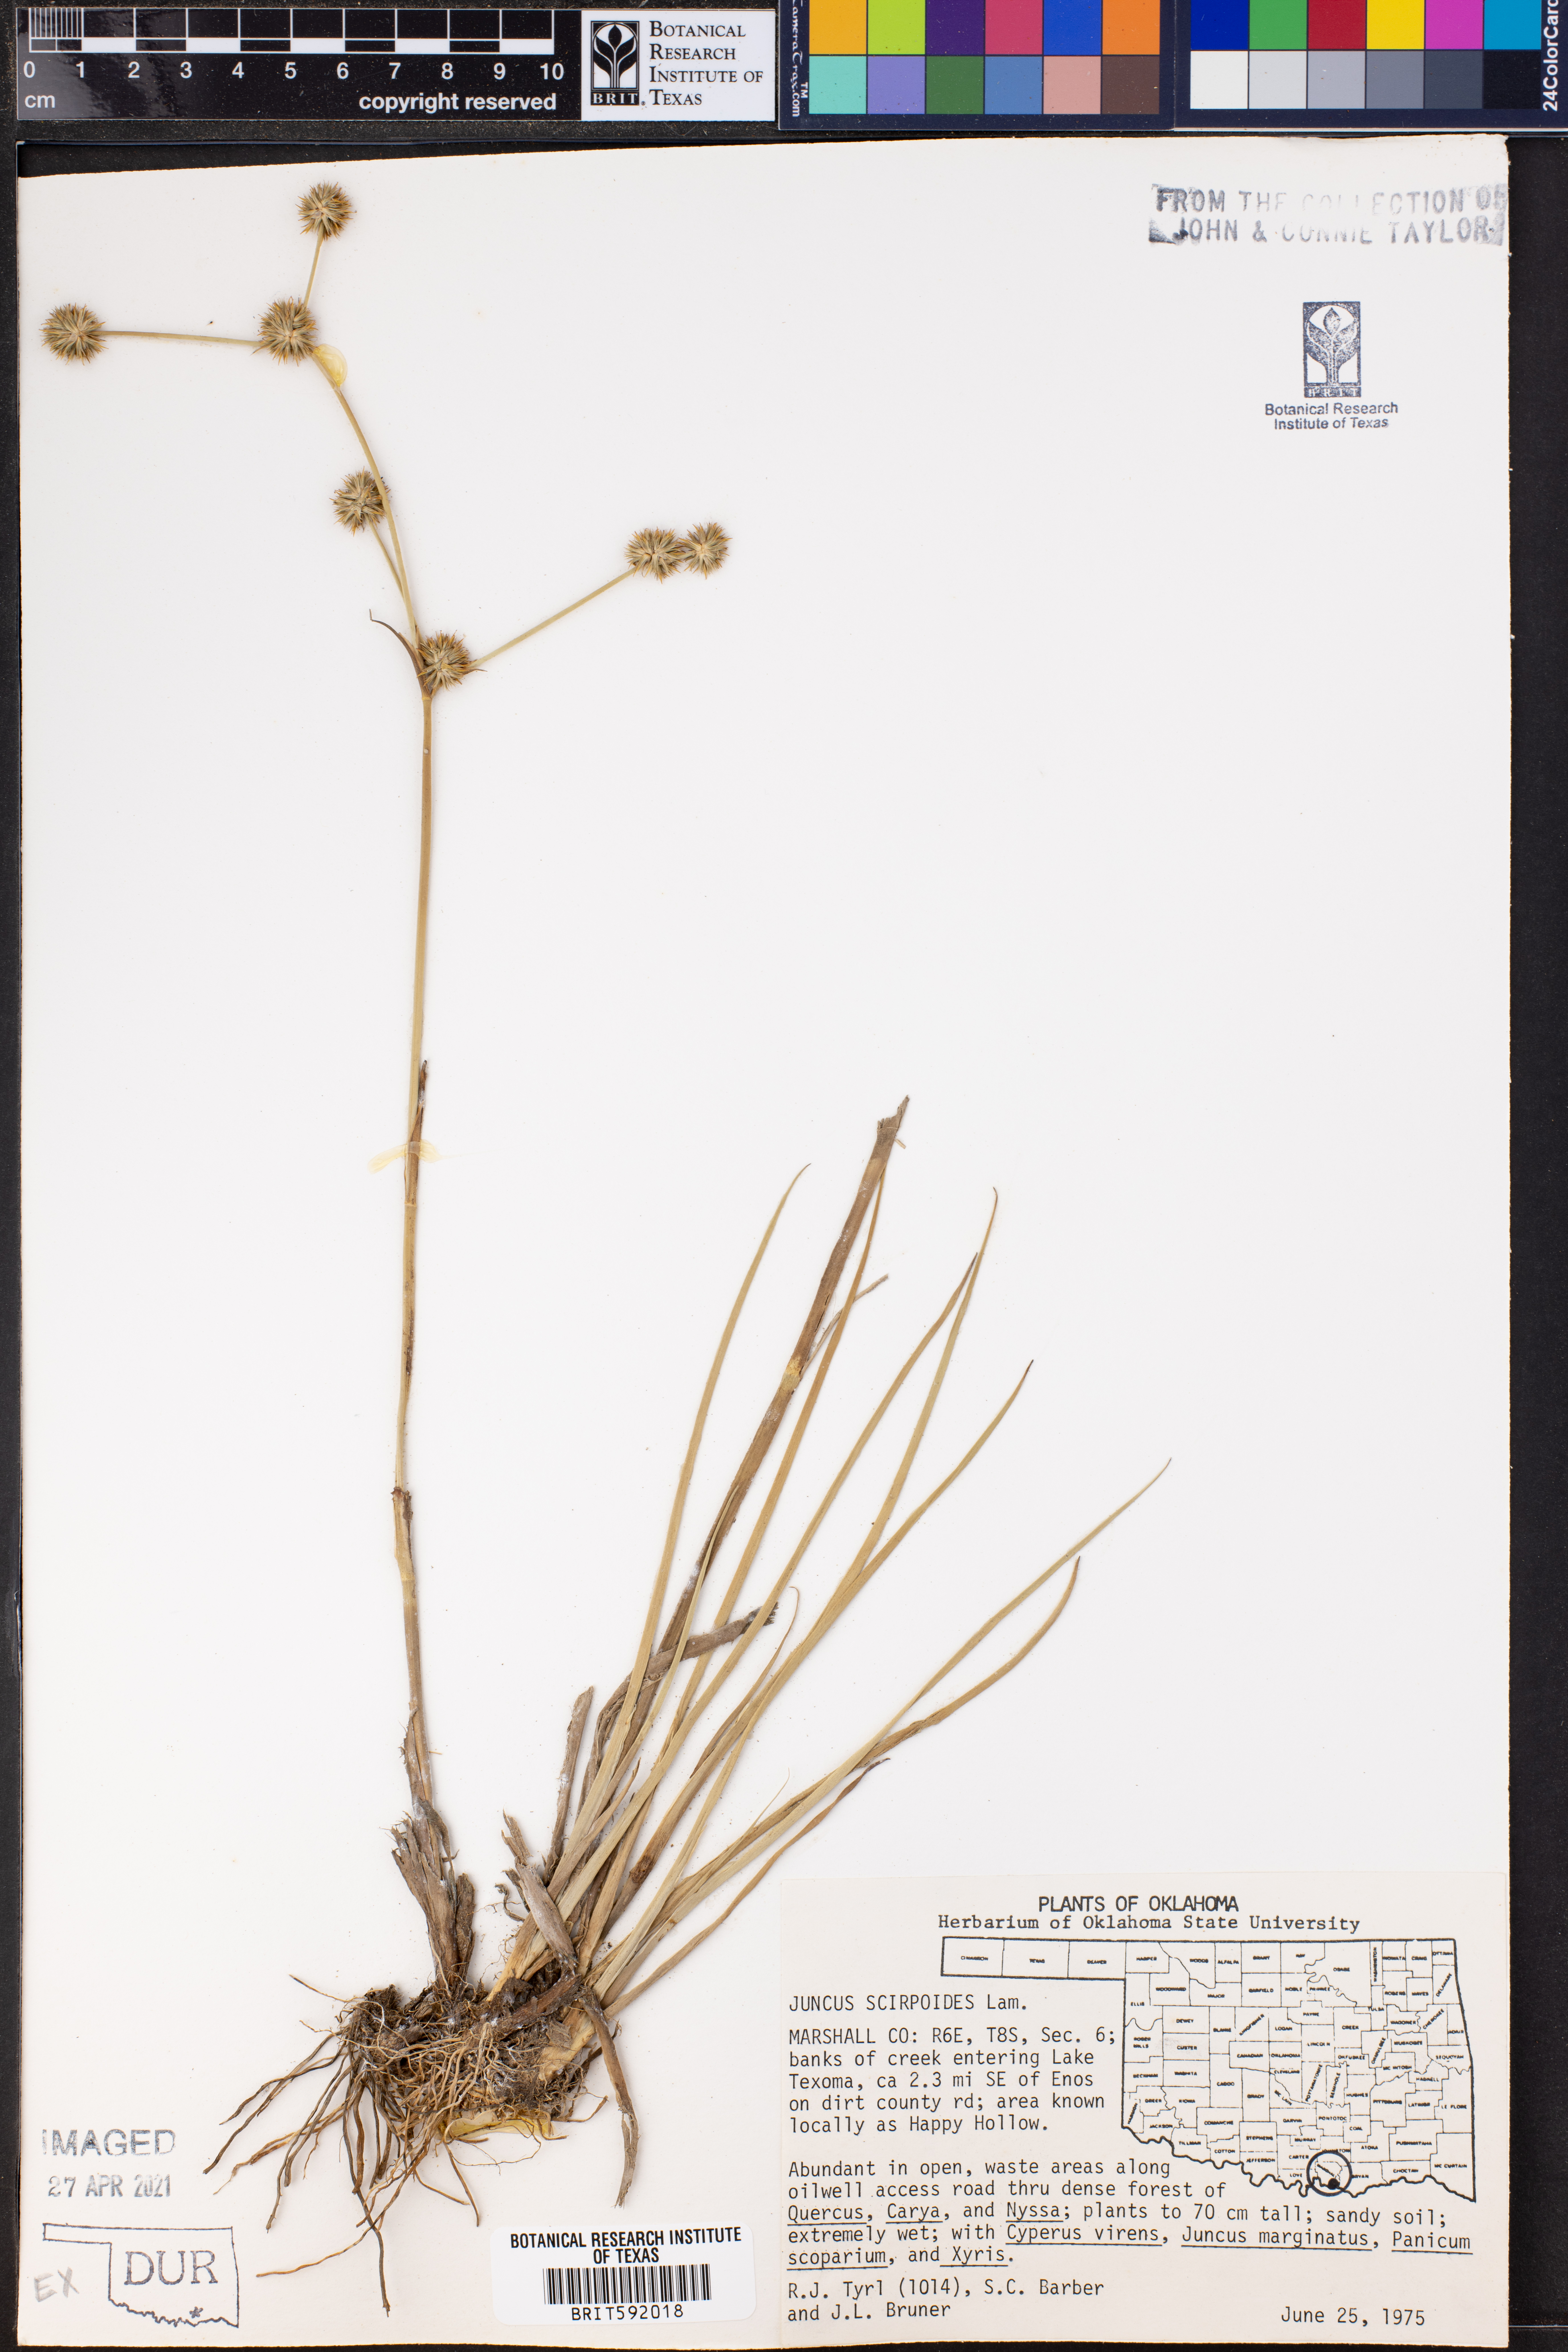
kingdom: Plantae
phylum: Tracheophyta
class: Liliopsida
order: Poales
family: Juncaceae
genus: Juncus
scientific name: Juncus scirpoides
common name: Needlepod rush
